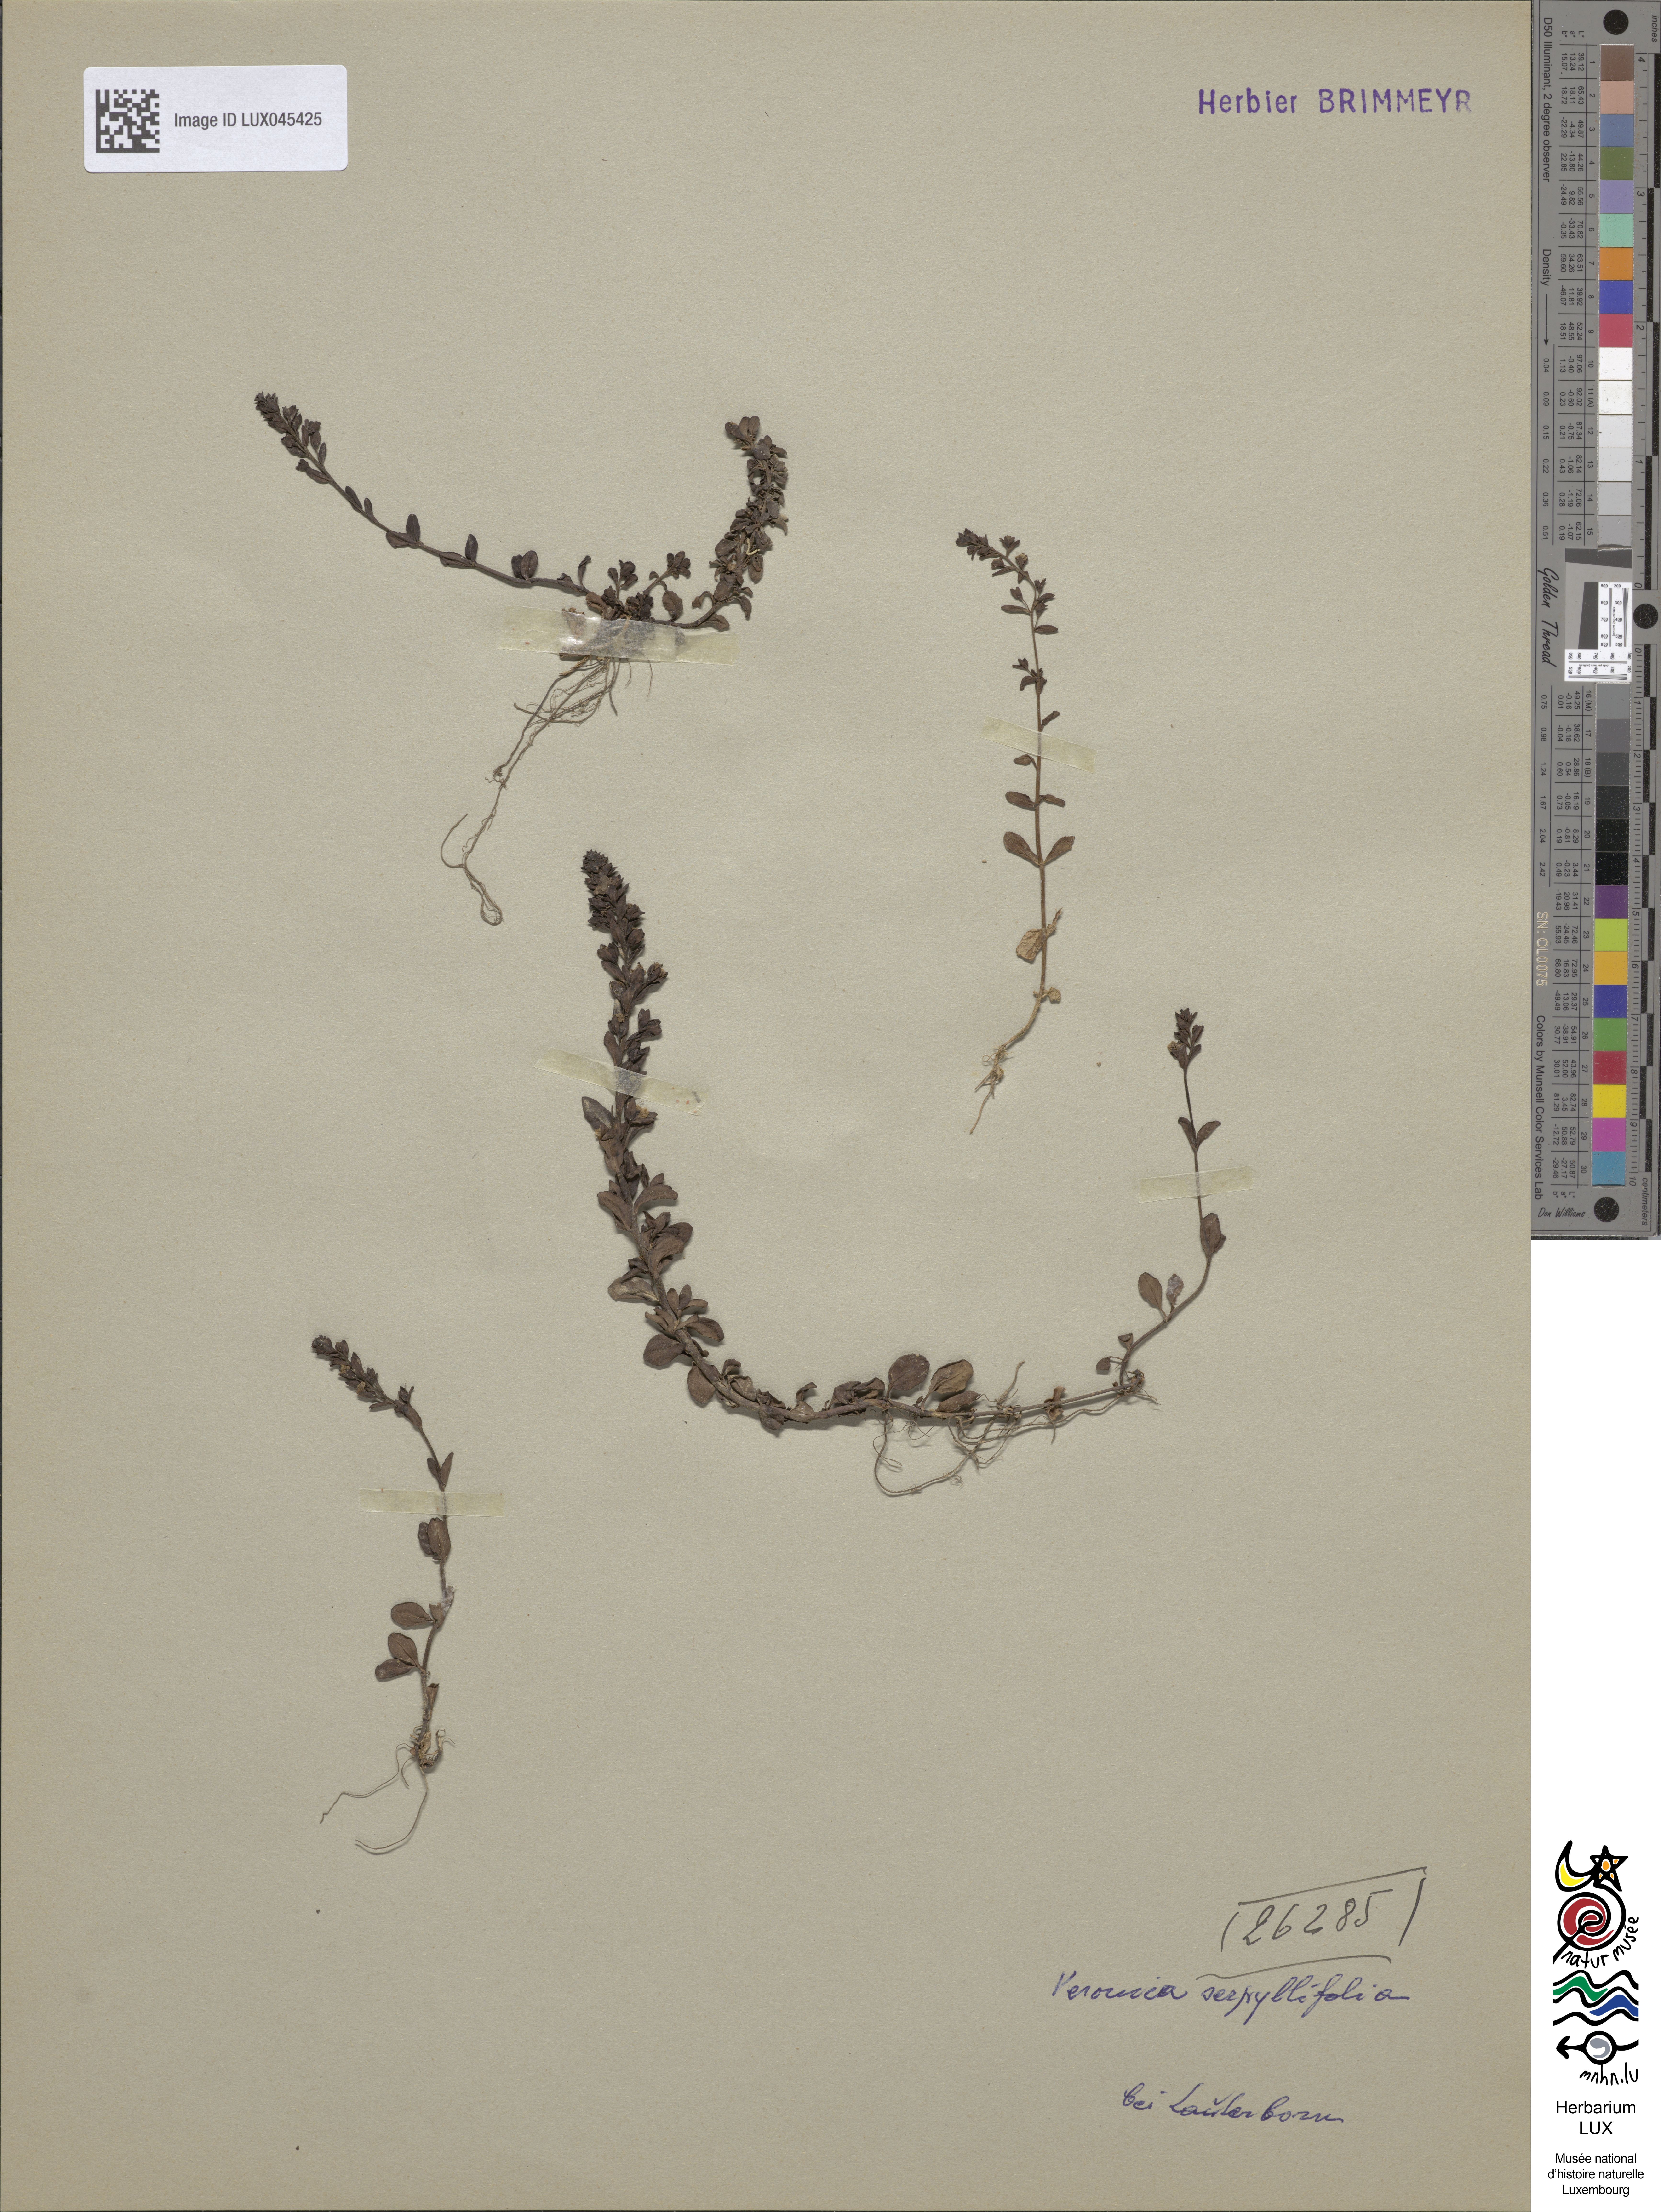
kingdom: Plantae
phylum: Tracheophyta
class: Magnoliopsida
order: Lamiales
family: Plantaginaceae
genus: Veronica
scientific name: Veronica serpyllifolia
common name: Thyme-leaved speedwell
